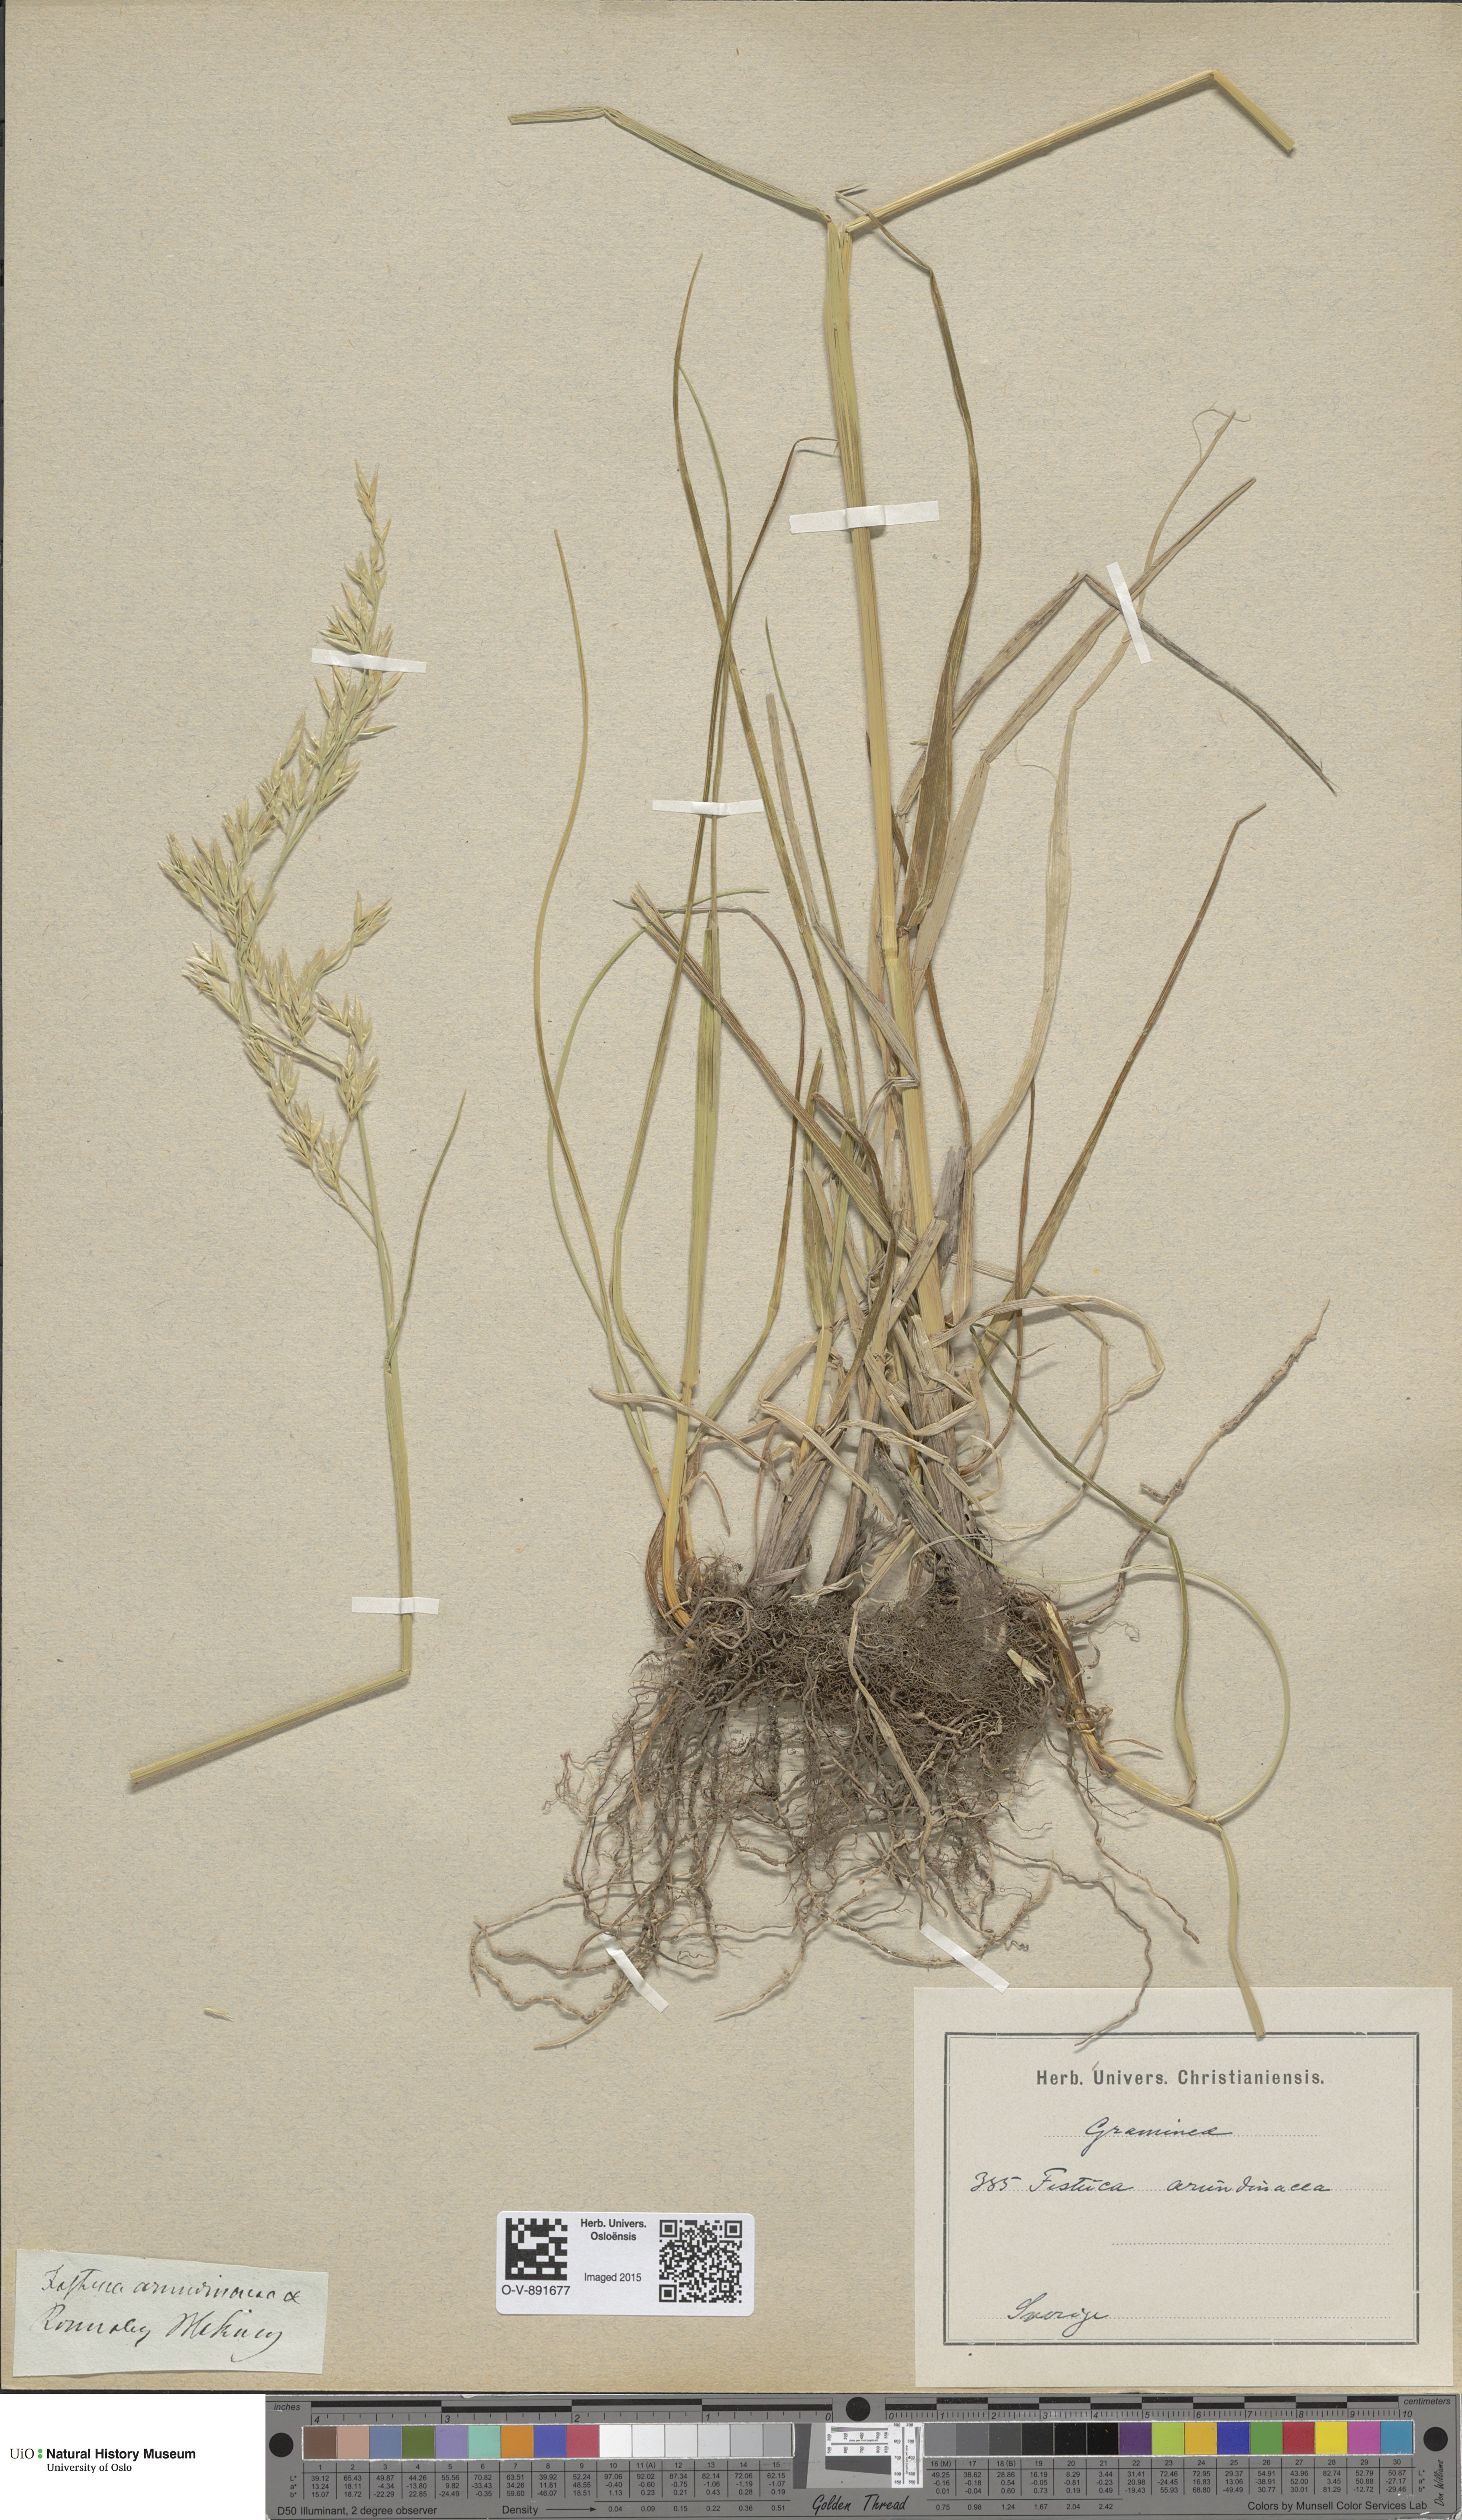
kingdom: Plantae
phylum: Tracheophyta
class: Liliopsida
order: Poales
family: Poaceae
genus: Lolium
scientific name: Lolium arundinaceum
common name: Reed fescue
